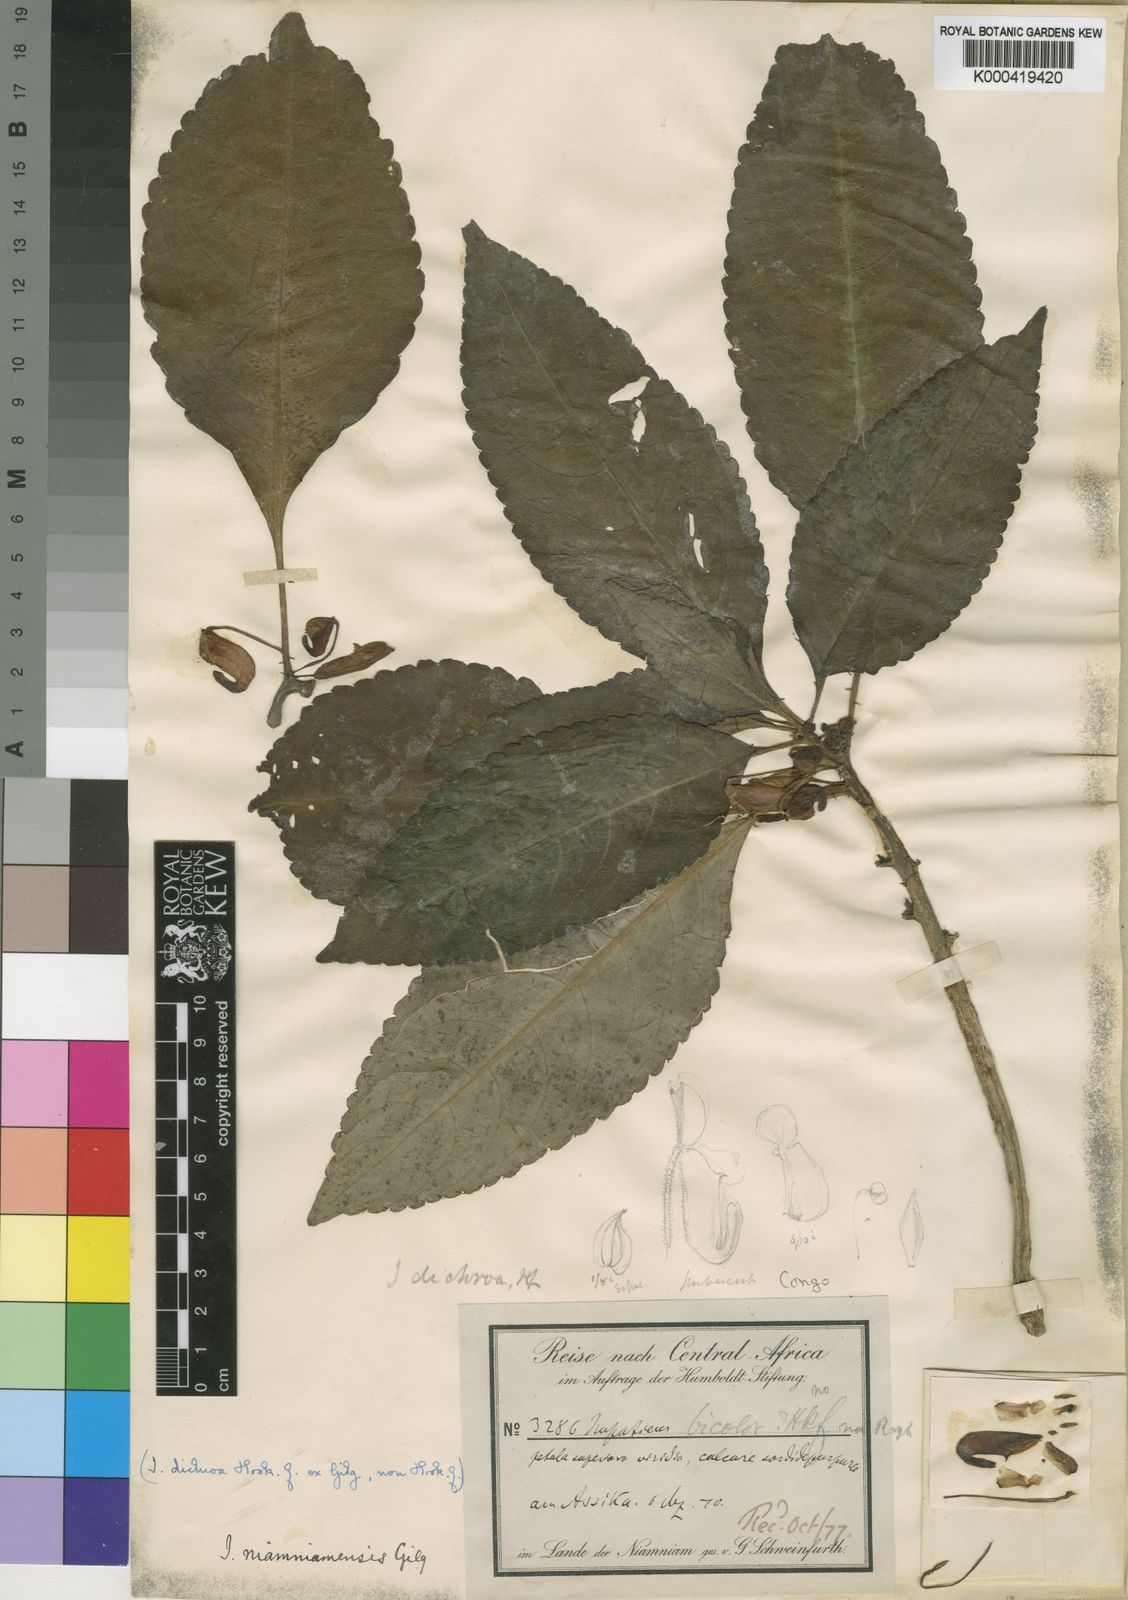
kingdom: Plantae
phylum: Tracheophyta
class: Magnoliopsida
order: Ericales
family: Balsaminaceae
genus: Impatiens
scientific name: Impatiens niamniamensis
